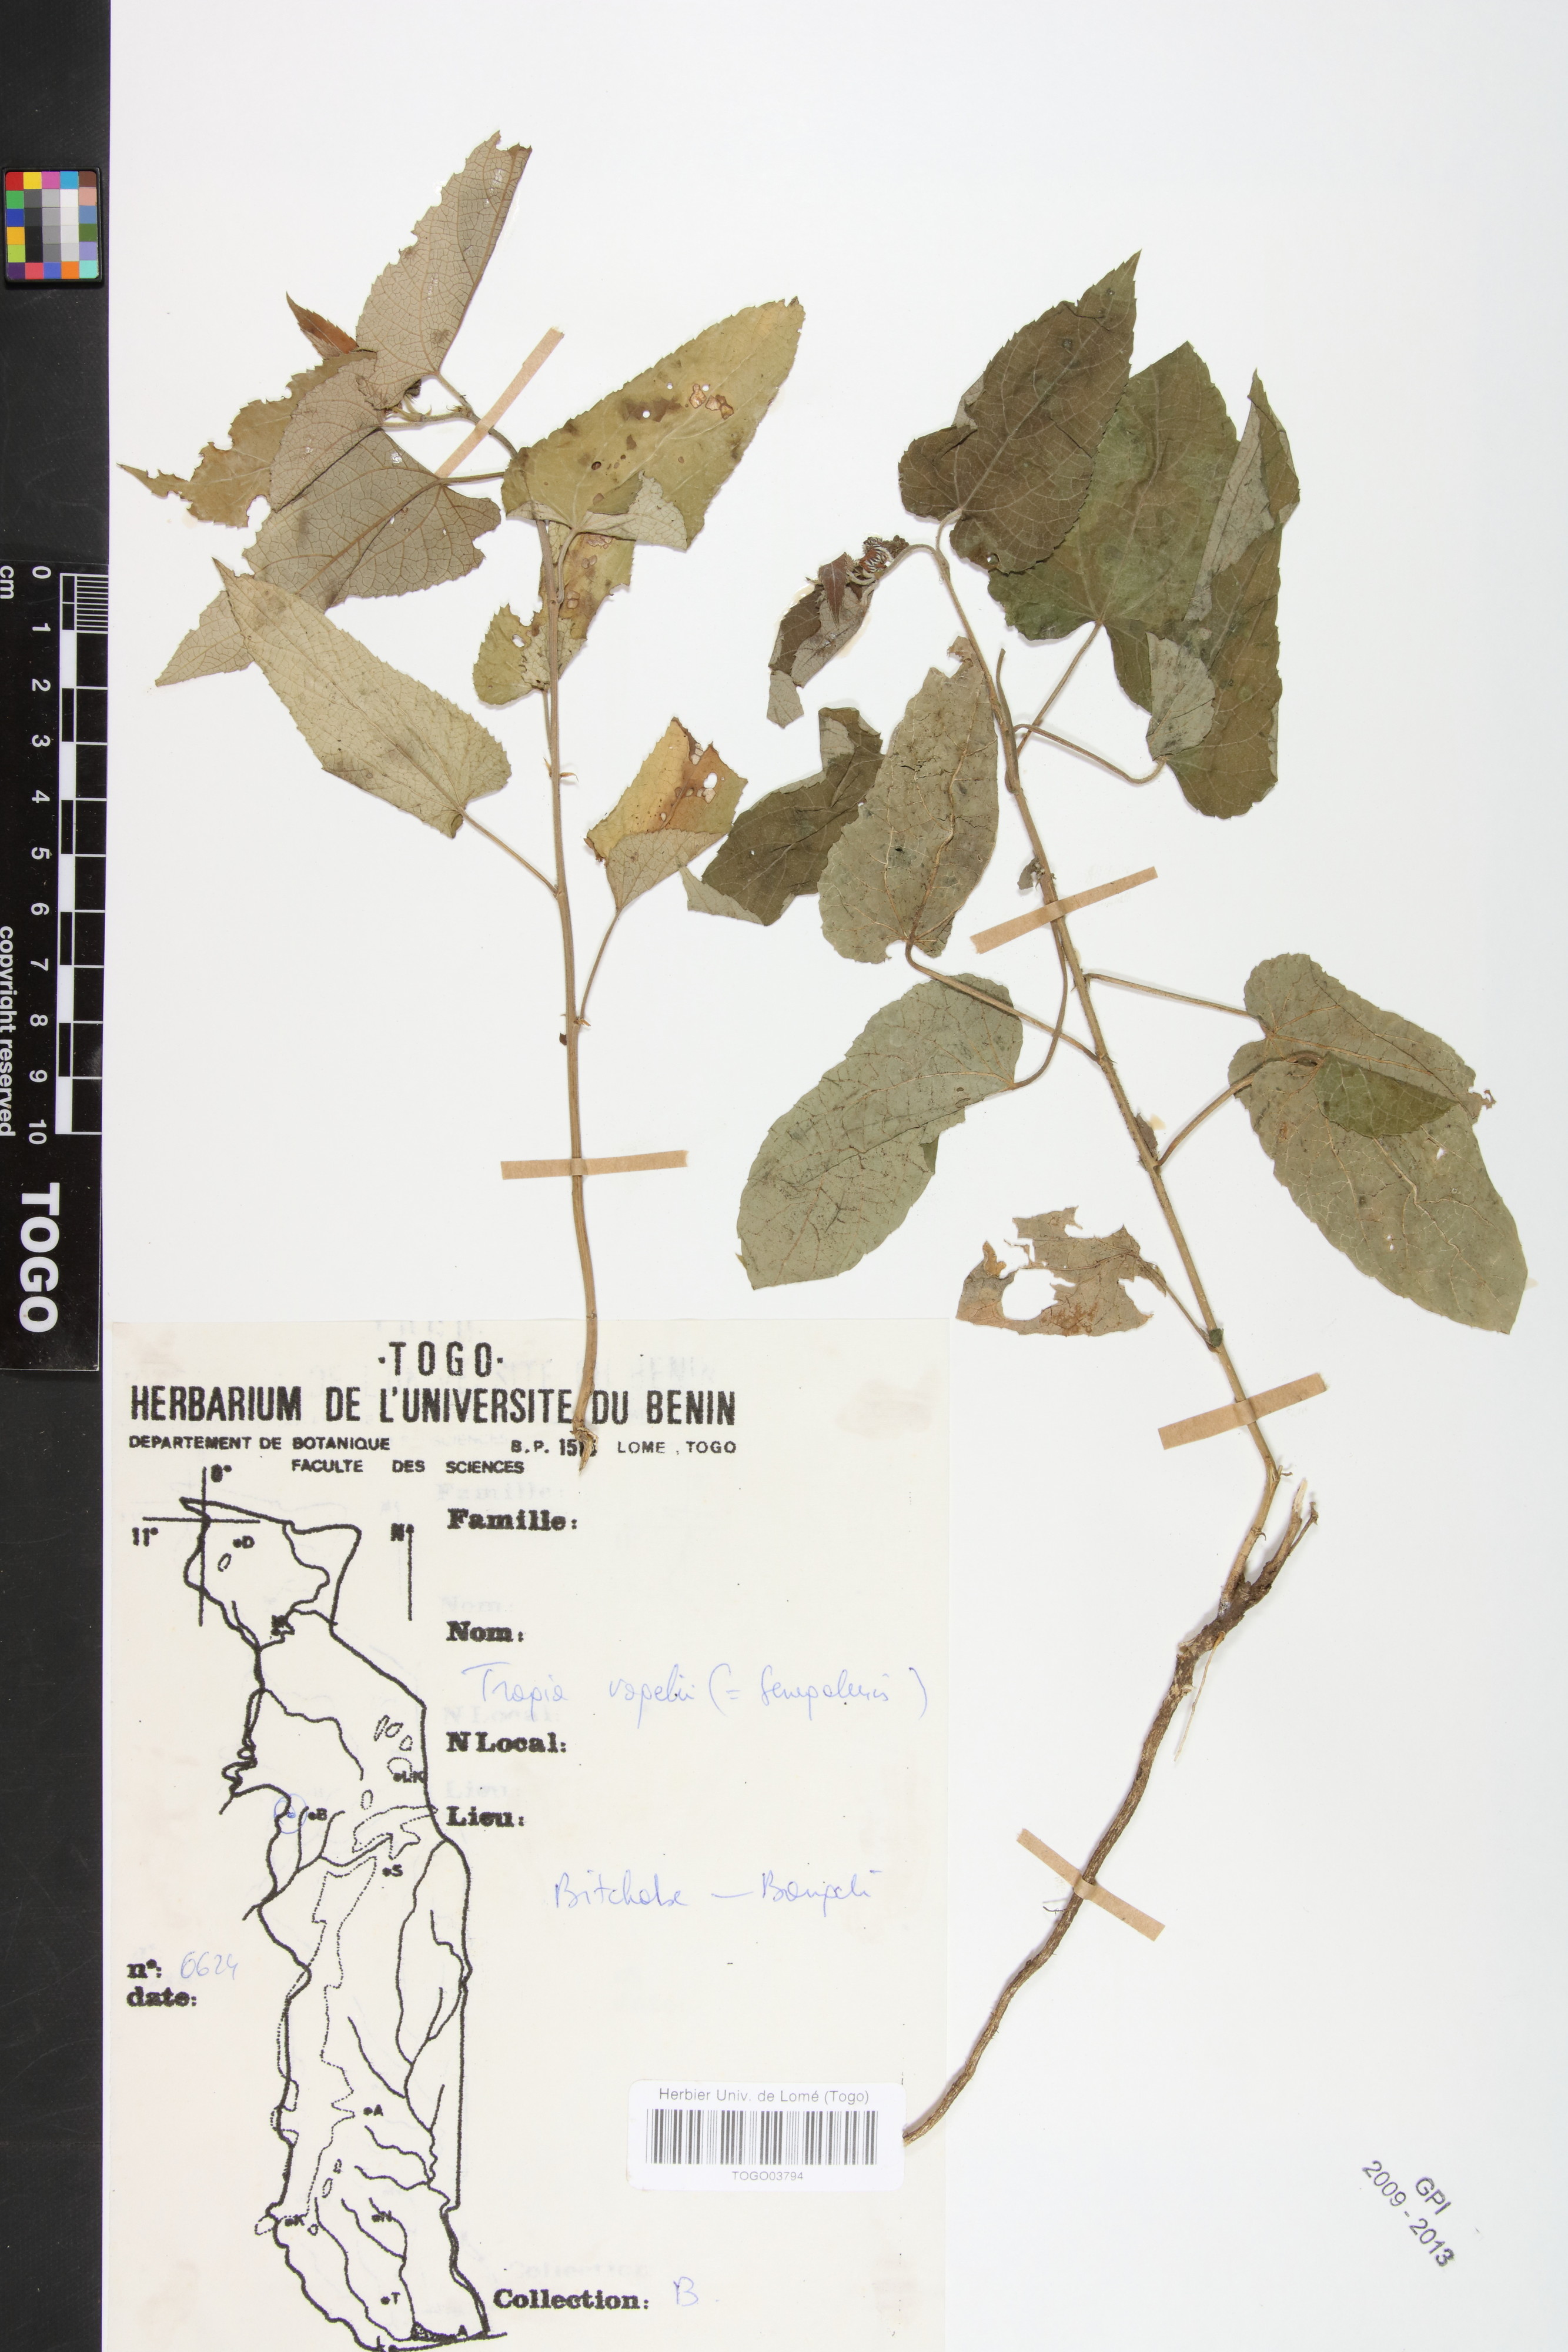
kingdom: Plantae
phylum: Tracheophyta
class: Magnoliopsida
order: Malpighiales
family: Euphorbiaceae
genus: Tragia
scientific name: Tragia vogelii
